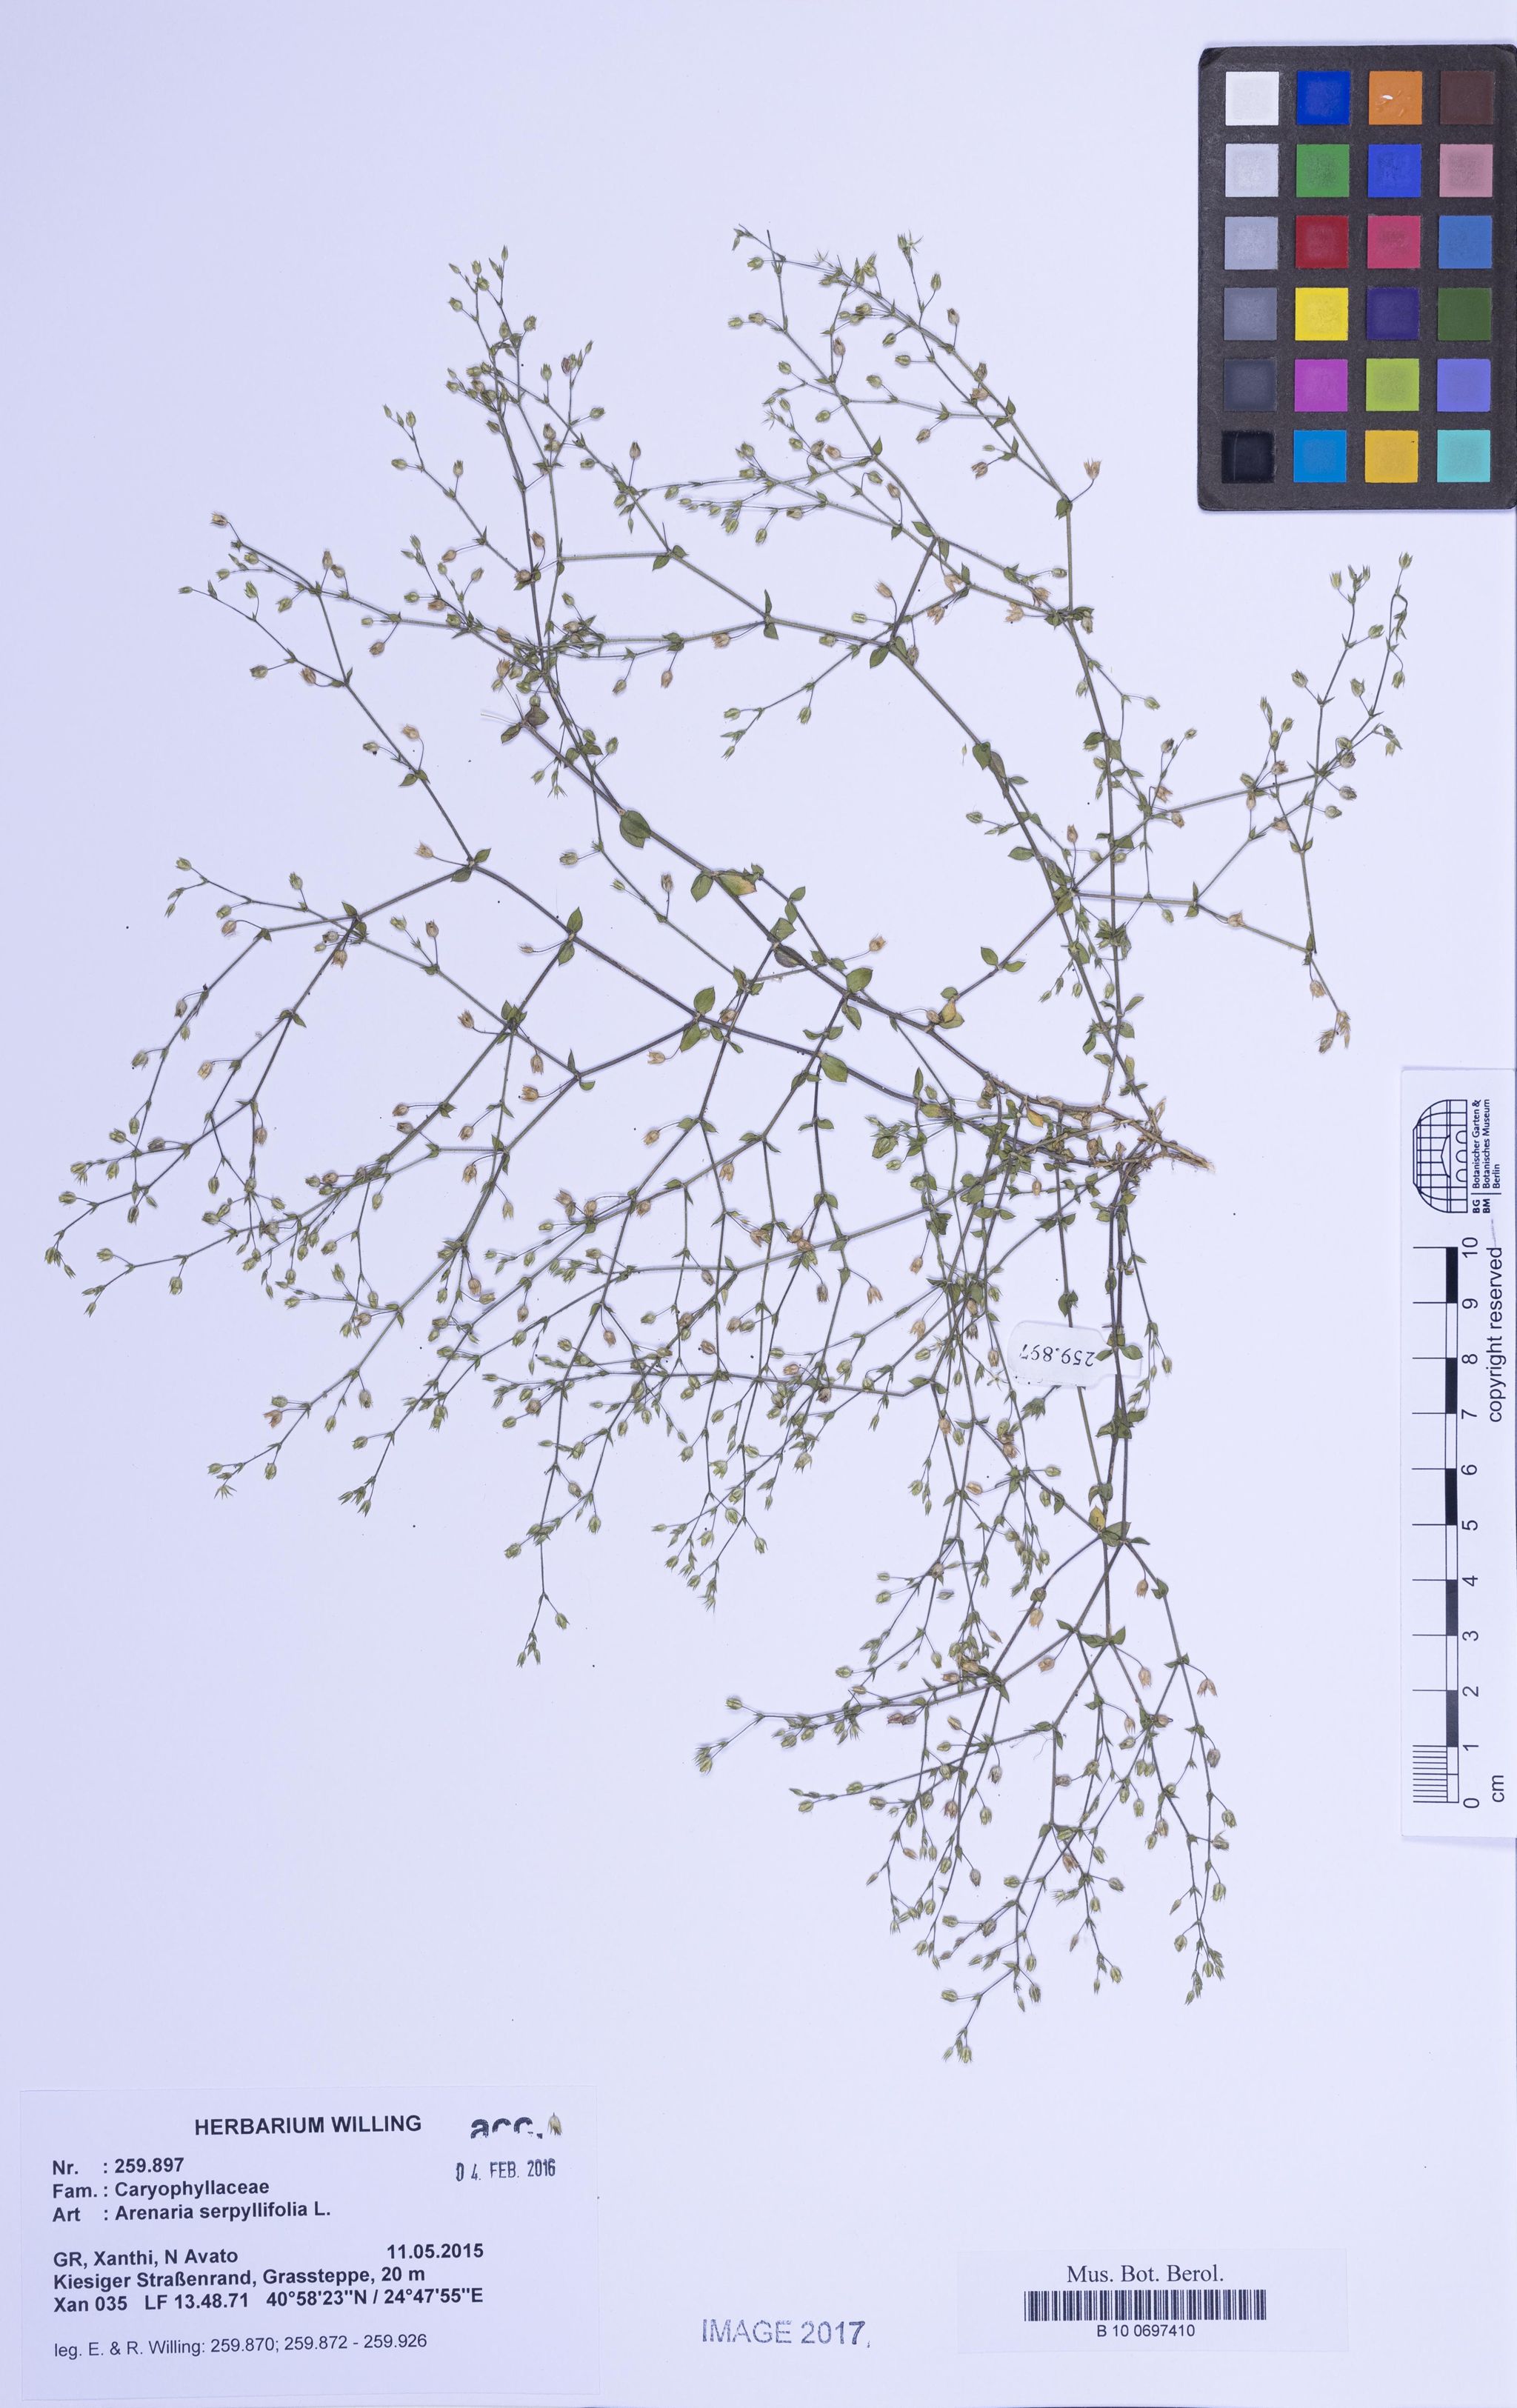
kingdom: Plantae
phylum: Tracheophyta
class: Magnoliopsida
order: Caryophyllales
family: Caryophyllaceae
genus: Arenaria
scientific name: Arenaria serpyllifolia
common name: Thyme-leaved sandwort
